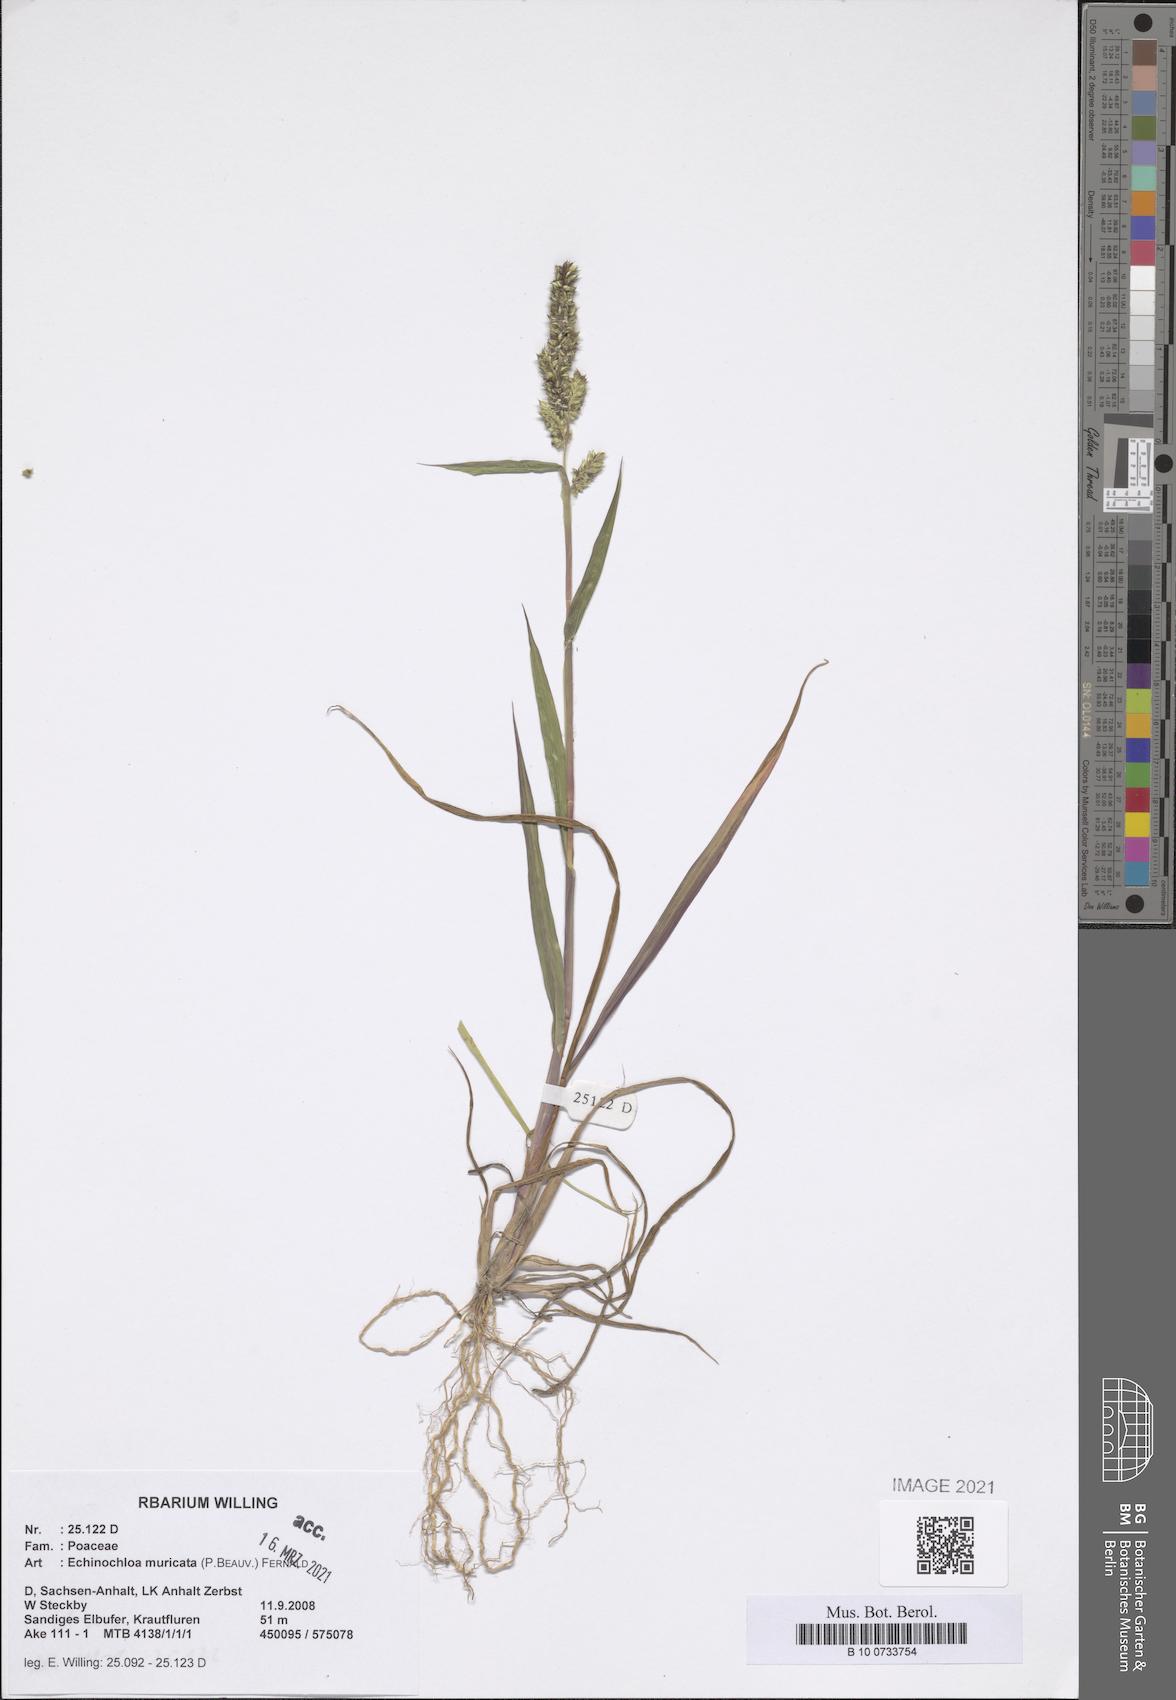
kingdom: Plantae
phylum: Tracheophyta
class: Liliopsida
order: Poales
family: Poaceae
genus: Echinochloa
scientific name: Echinochloa muricata
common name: American barnyard grass
